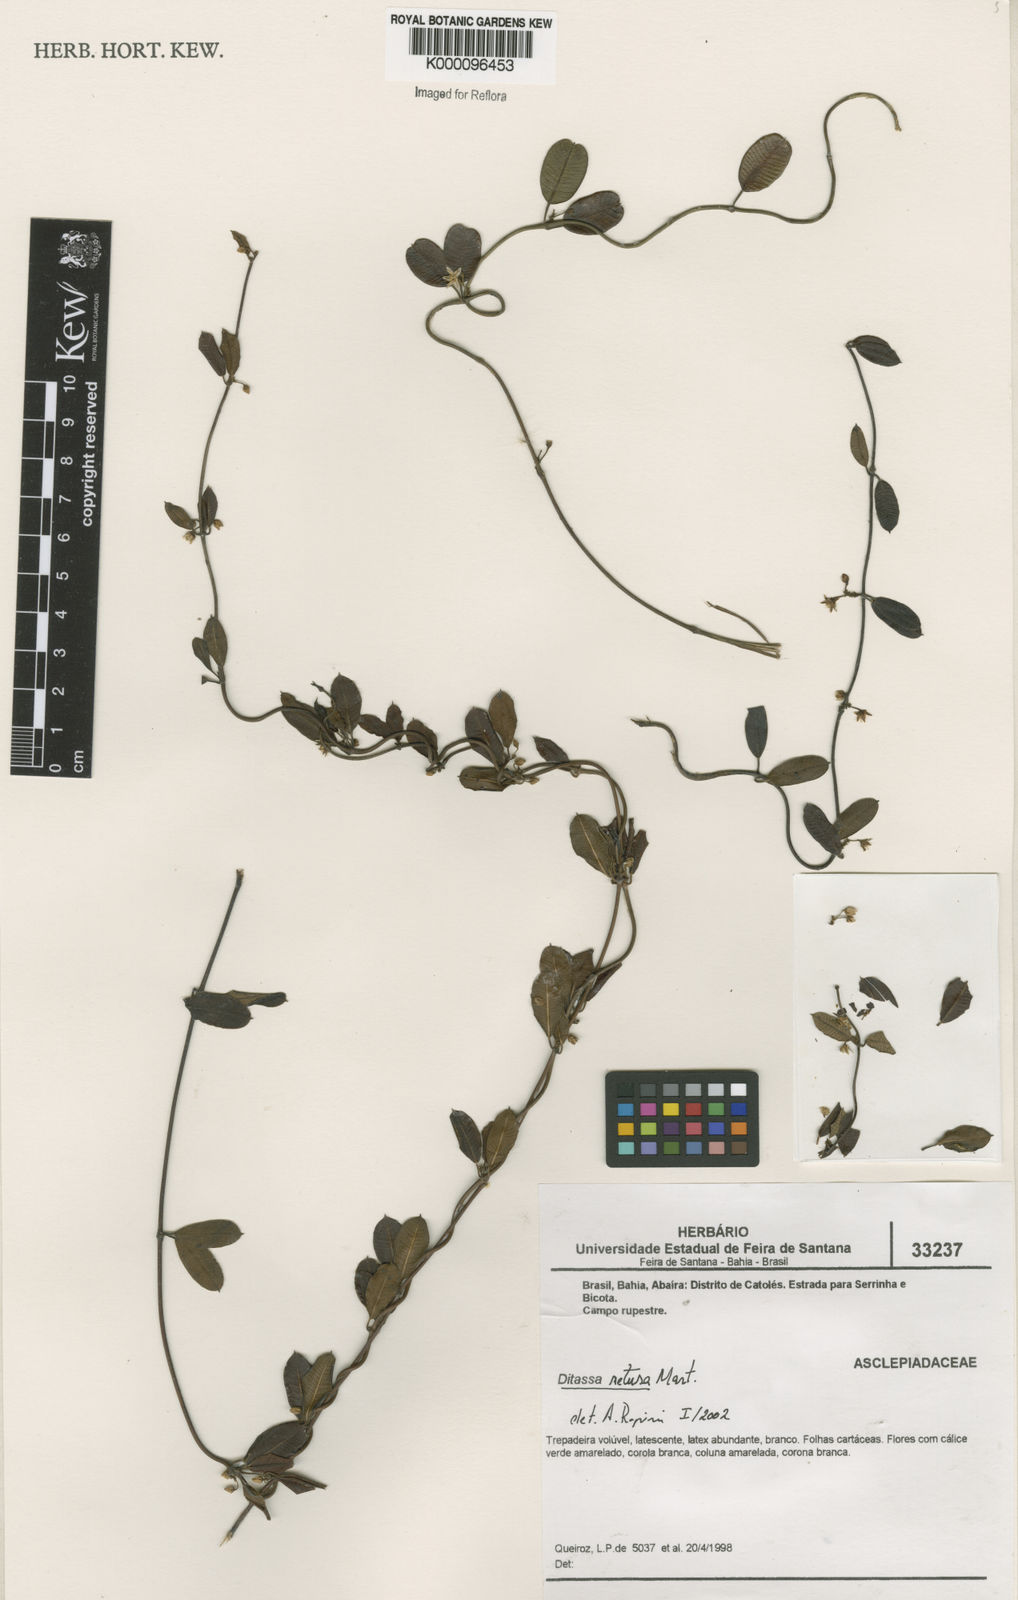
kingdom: Plantae
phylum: Tracheophyta
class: Magnoliopsida
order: Gentianales
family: Apocynaceae
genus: Ditassa
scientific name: Ditassa retusa
